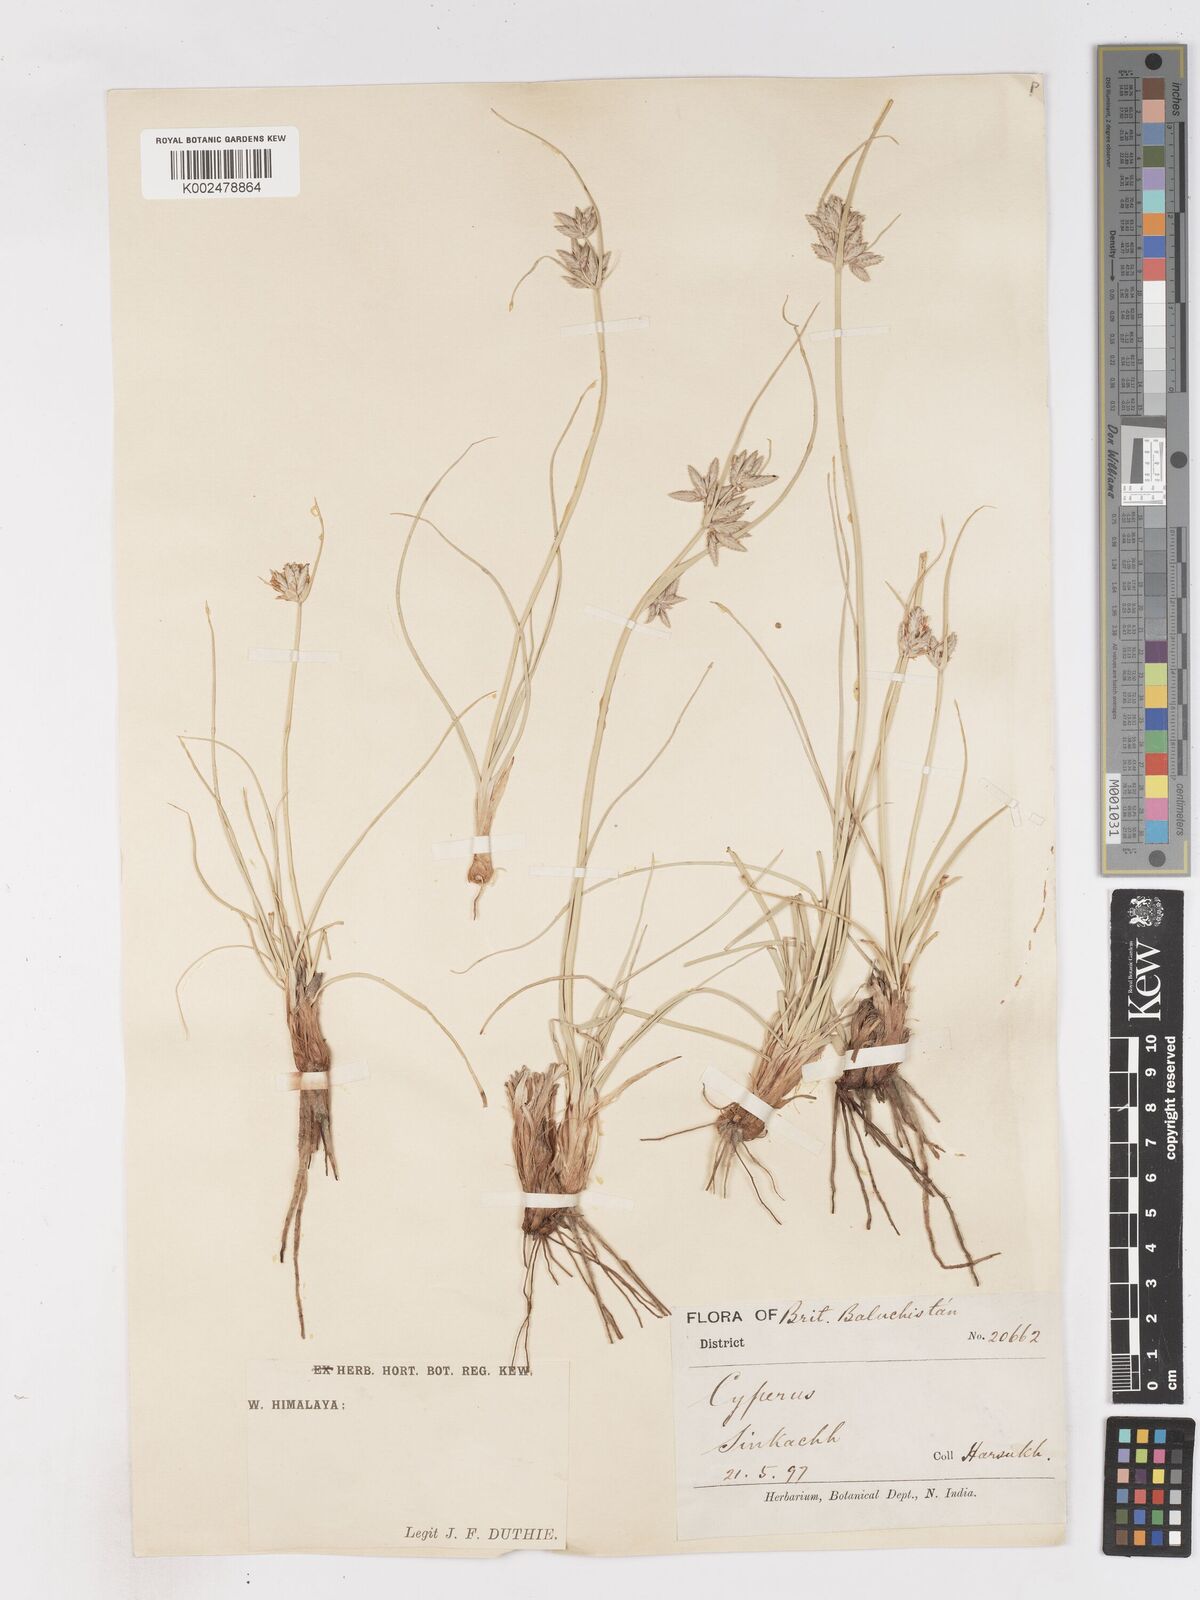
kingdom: Plantae
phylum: Tracheophyta
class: Liliopsida
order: Poales
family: Cyperaceae
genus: Cyperus
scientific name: Cyperus aucheri
